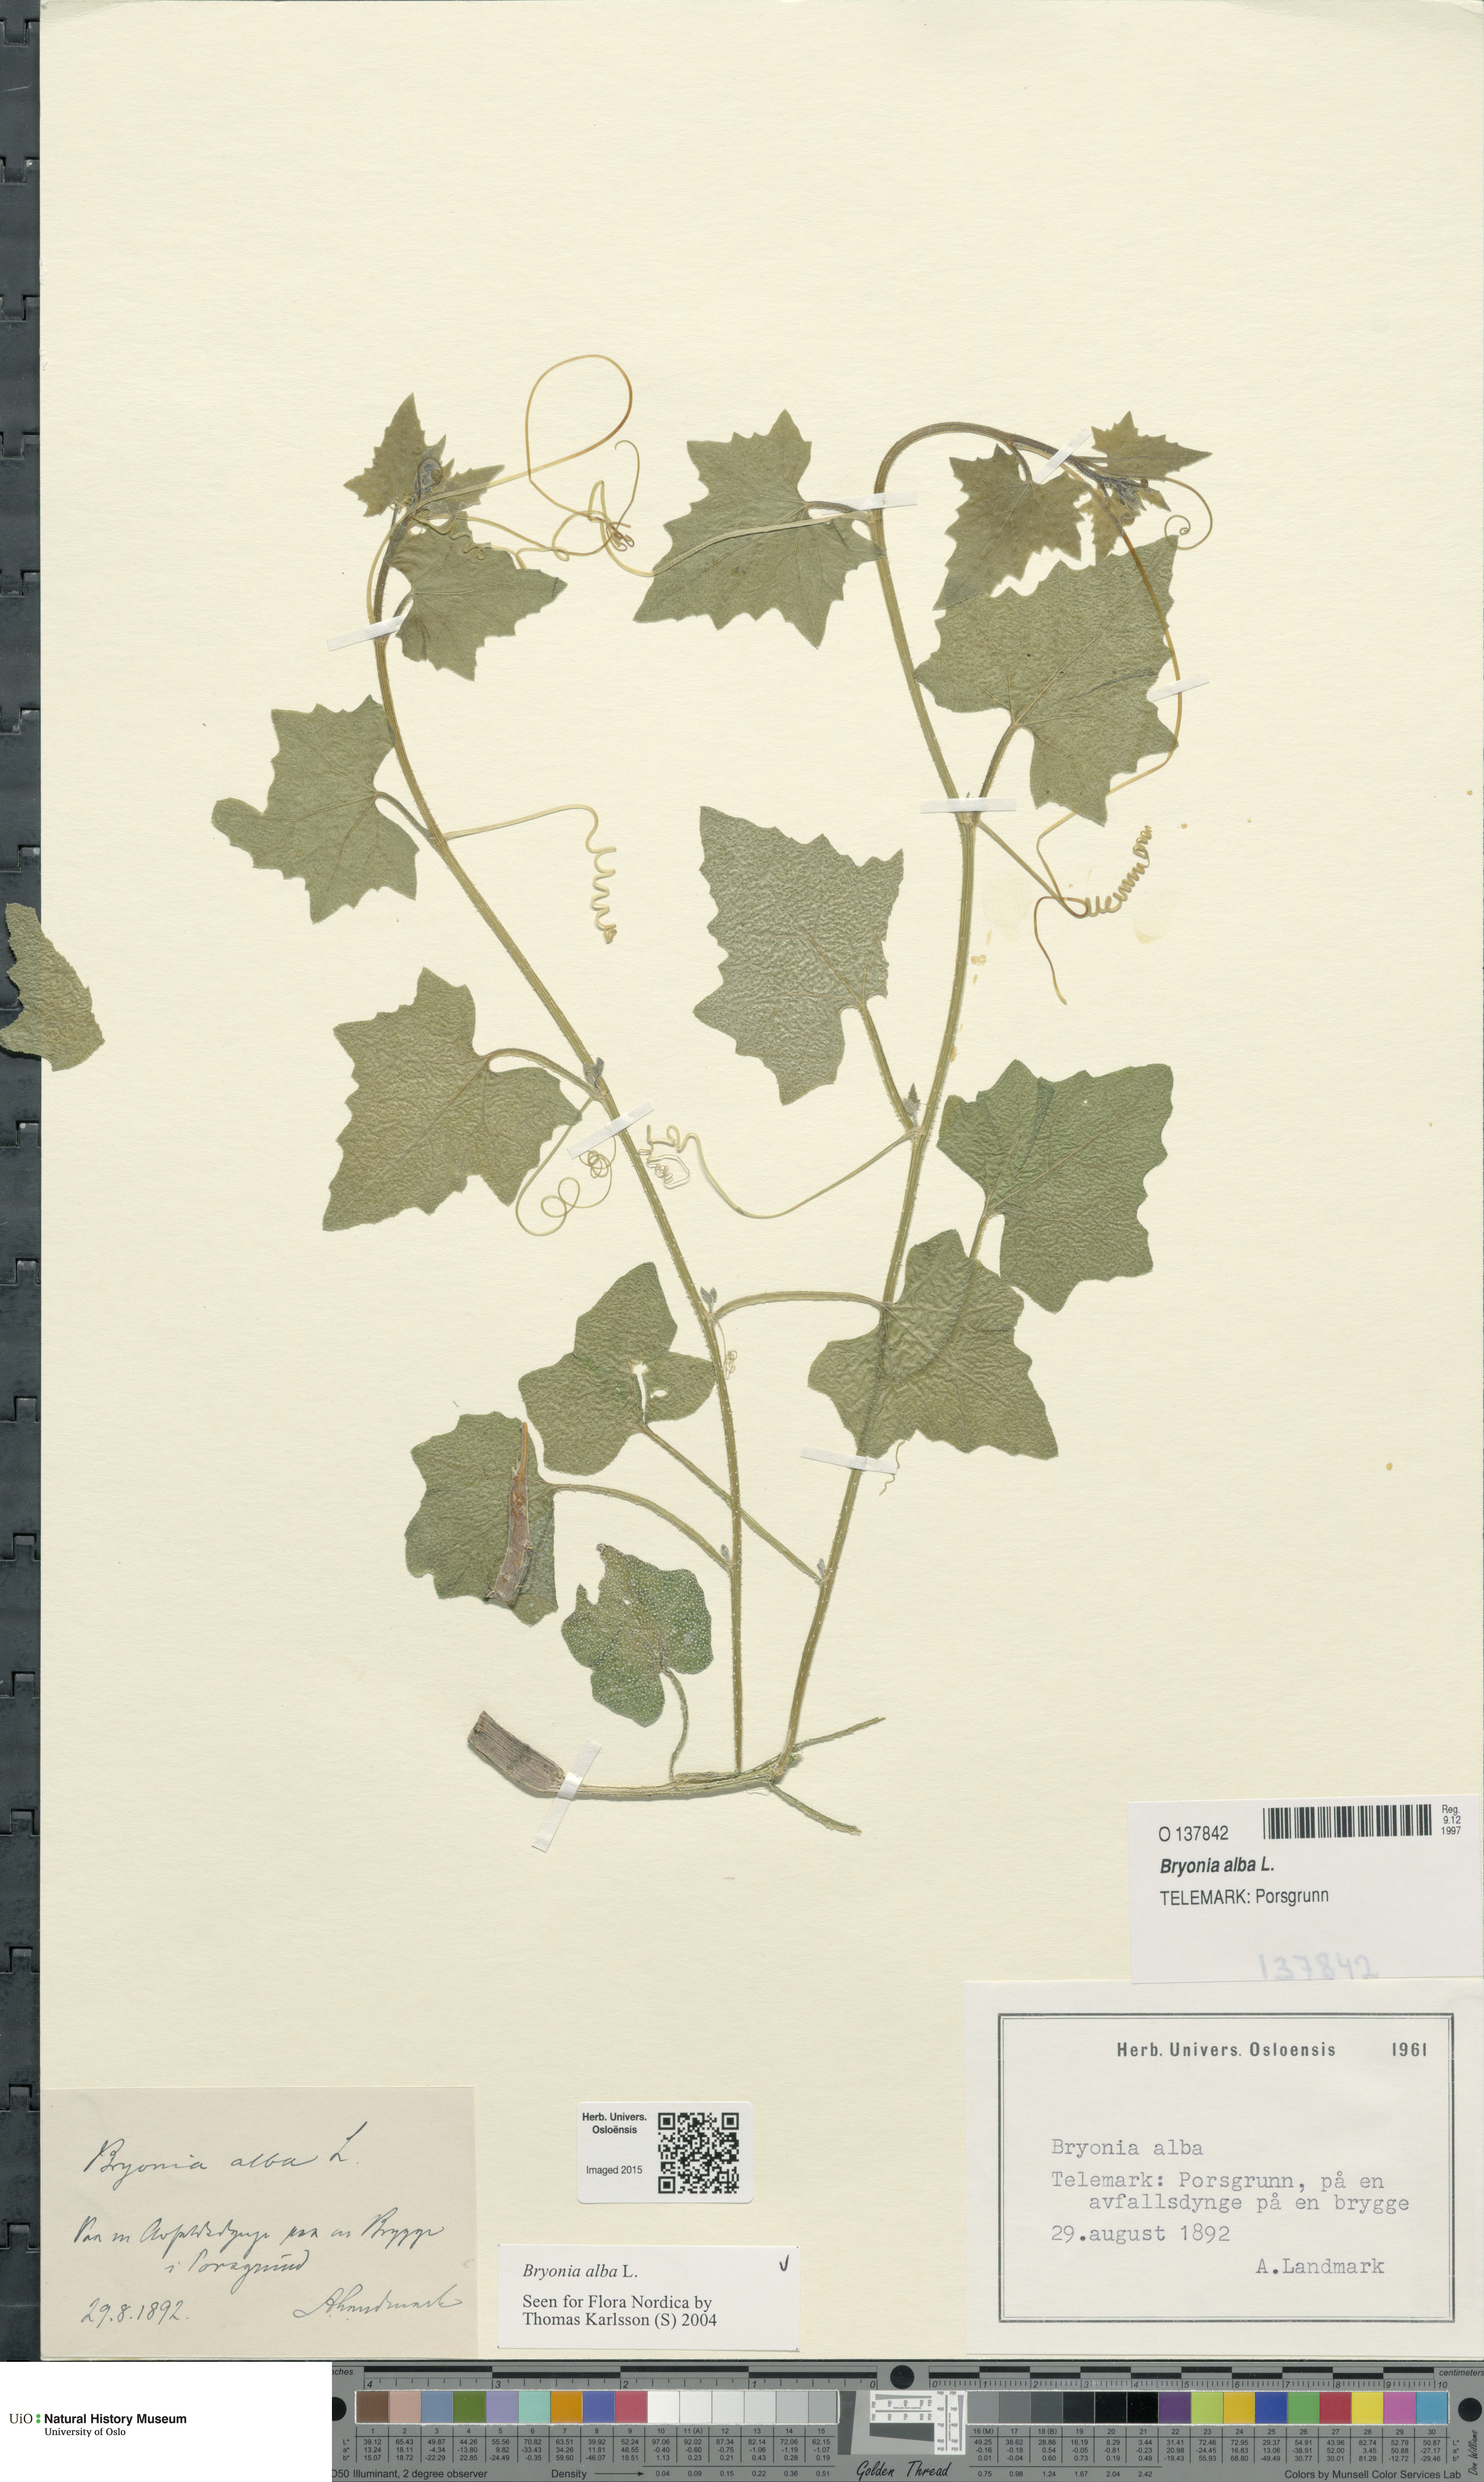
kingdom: Plantae
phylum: Tracheophyta
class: Magnoliopsida
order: Cucurbitales
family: Cucurbitaceae
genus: Bryonia
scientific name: Bryonia alba
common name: White bryony
